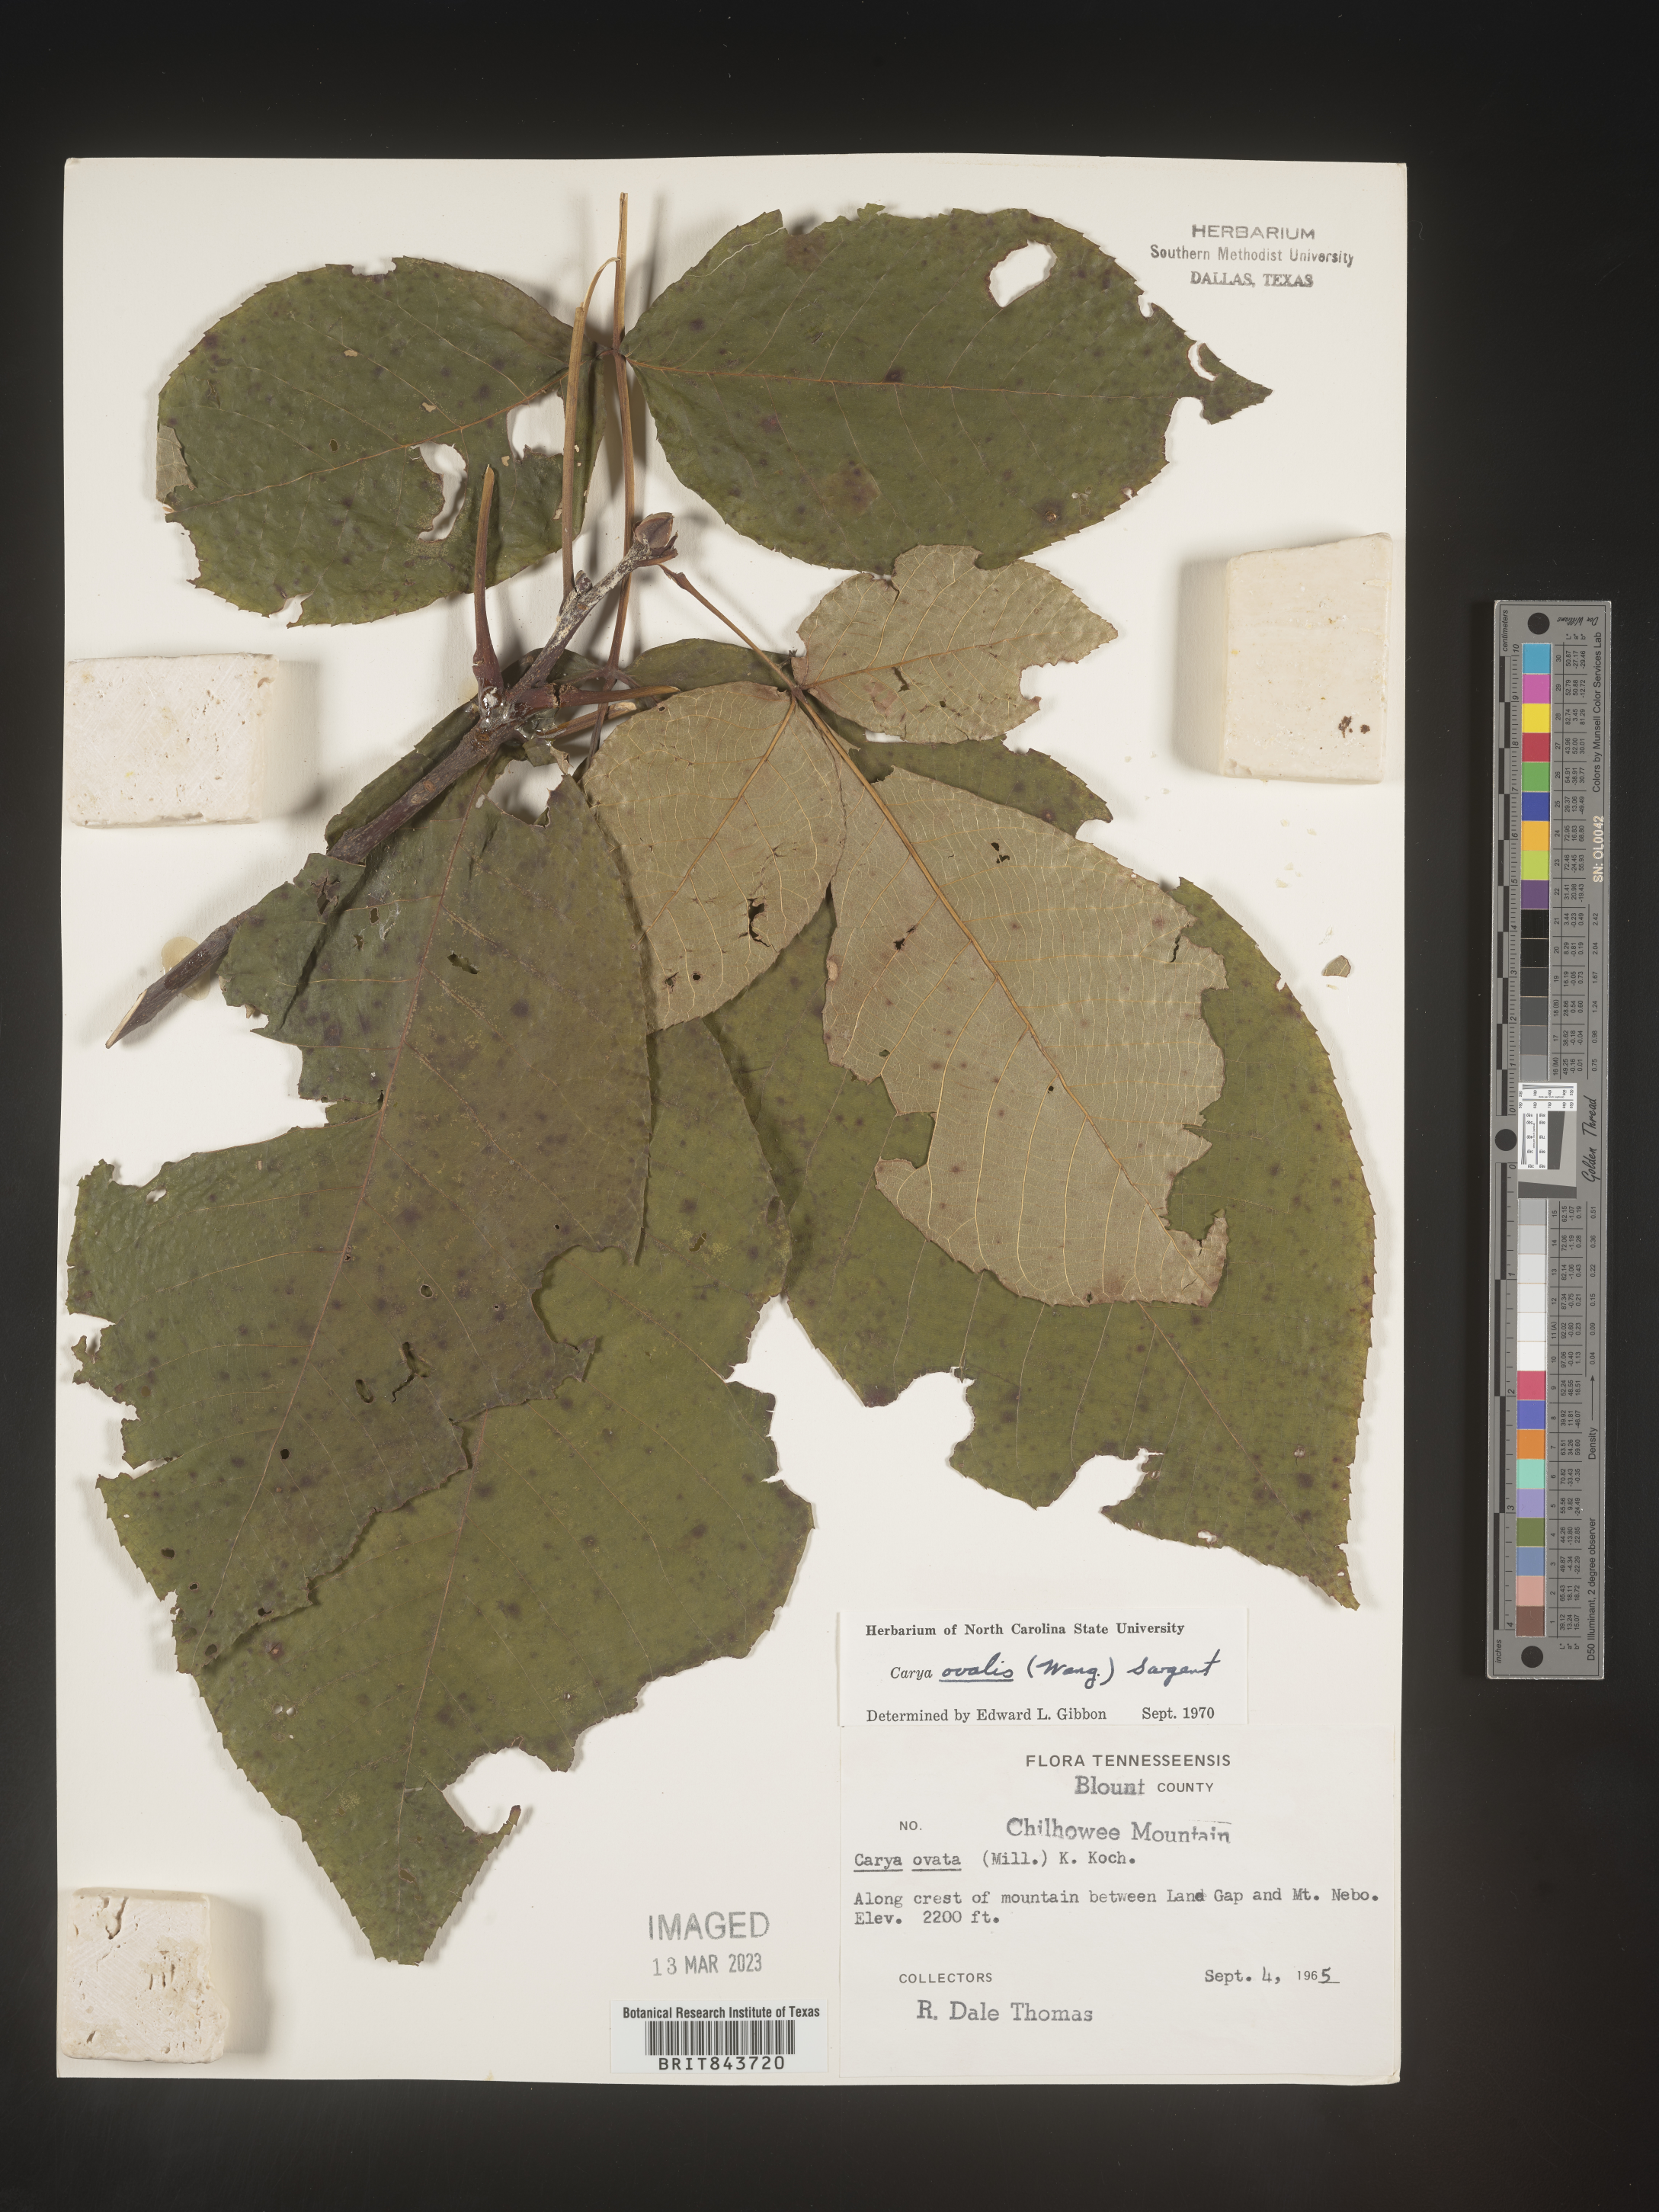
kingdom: Plantae
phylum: Tracheophyta
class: Magnoliopsida
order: Fagales
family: Juglandaceae
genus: Carya
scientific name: Carya ovalis
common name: False shagbark
